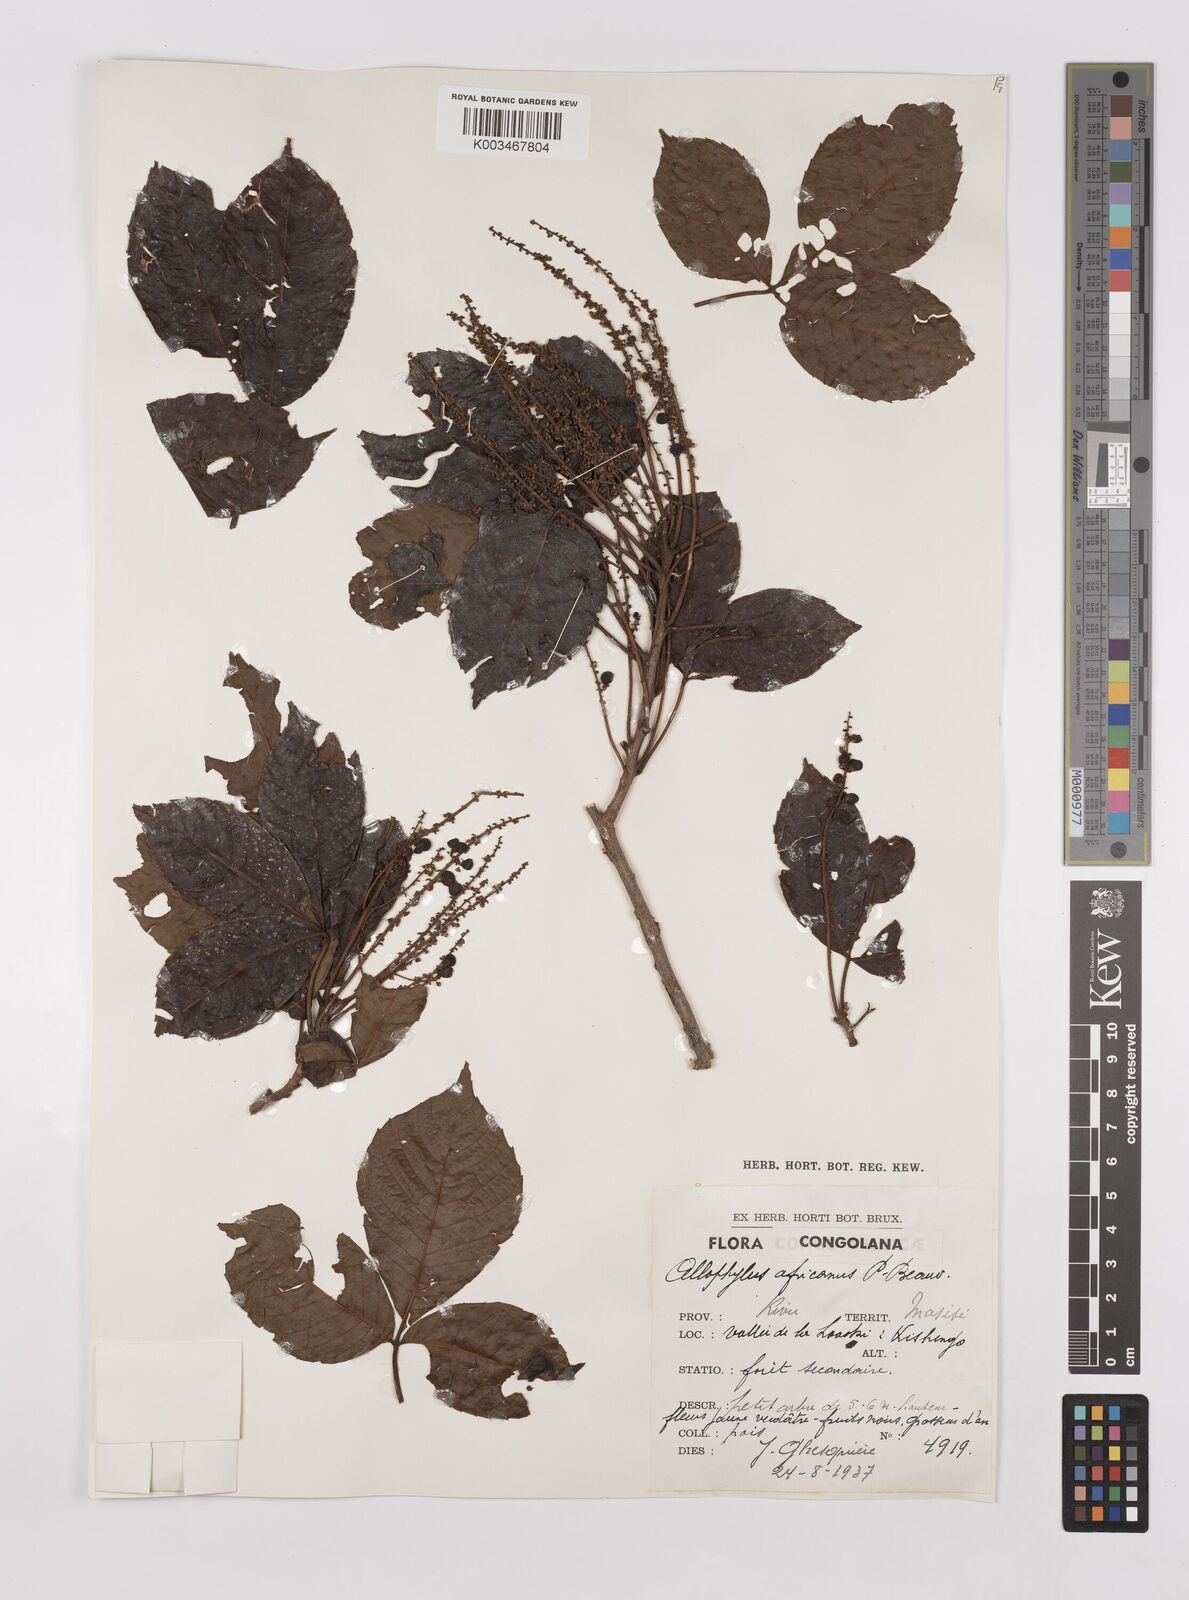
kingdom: Plantae
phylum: Tracheophyta
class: Magnoliopsida
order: Sapindales
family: Sapindaceae
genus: Allophylus
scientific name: Allophylus africanus
